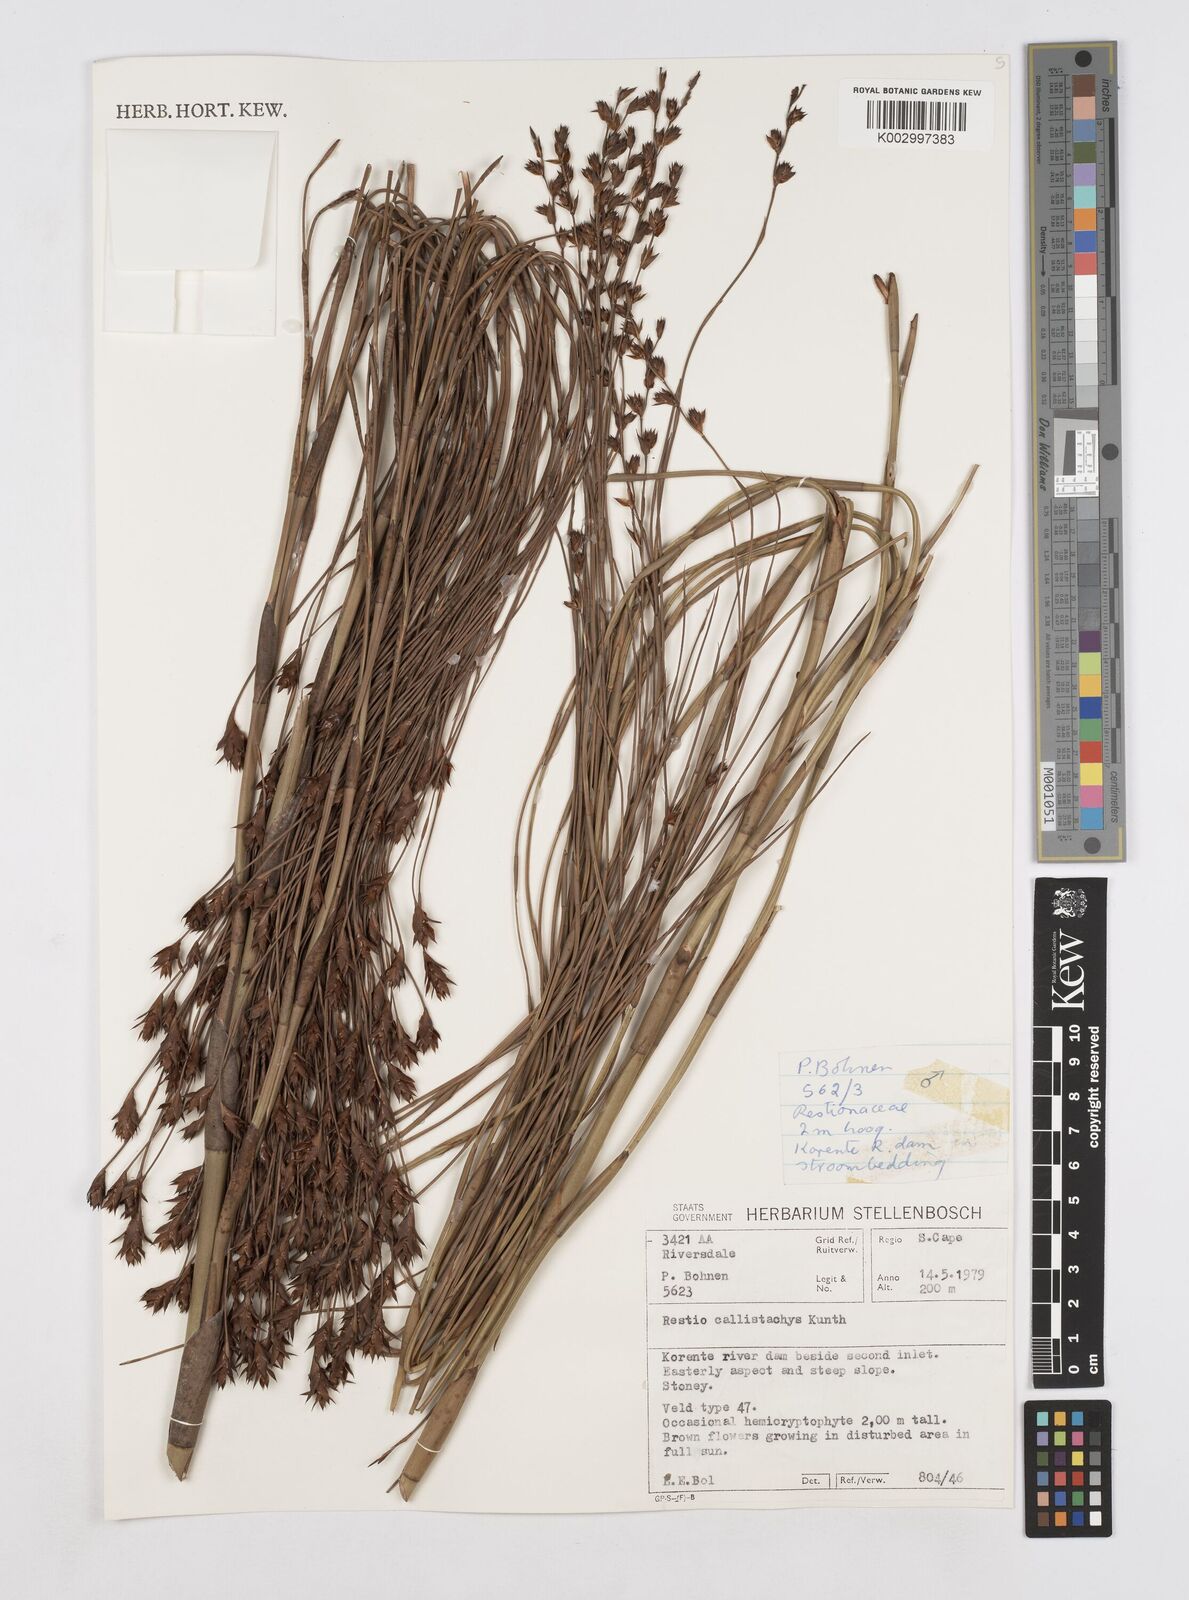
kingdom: Plantae
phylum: Tracheophyta
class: Liliopsida
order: Poales
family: Restionaceae
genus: Platycaulos
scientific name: Platycaulos callistachyus
